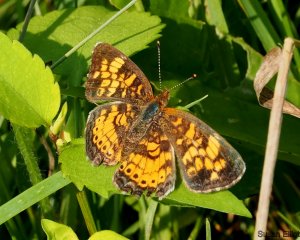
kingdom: Animalia
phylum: Arthropoda
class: Insecta
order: Lepidoptera
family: Nymphalidae
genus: Phyciodes
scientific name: Phyciodes
